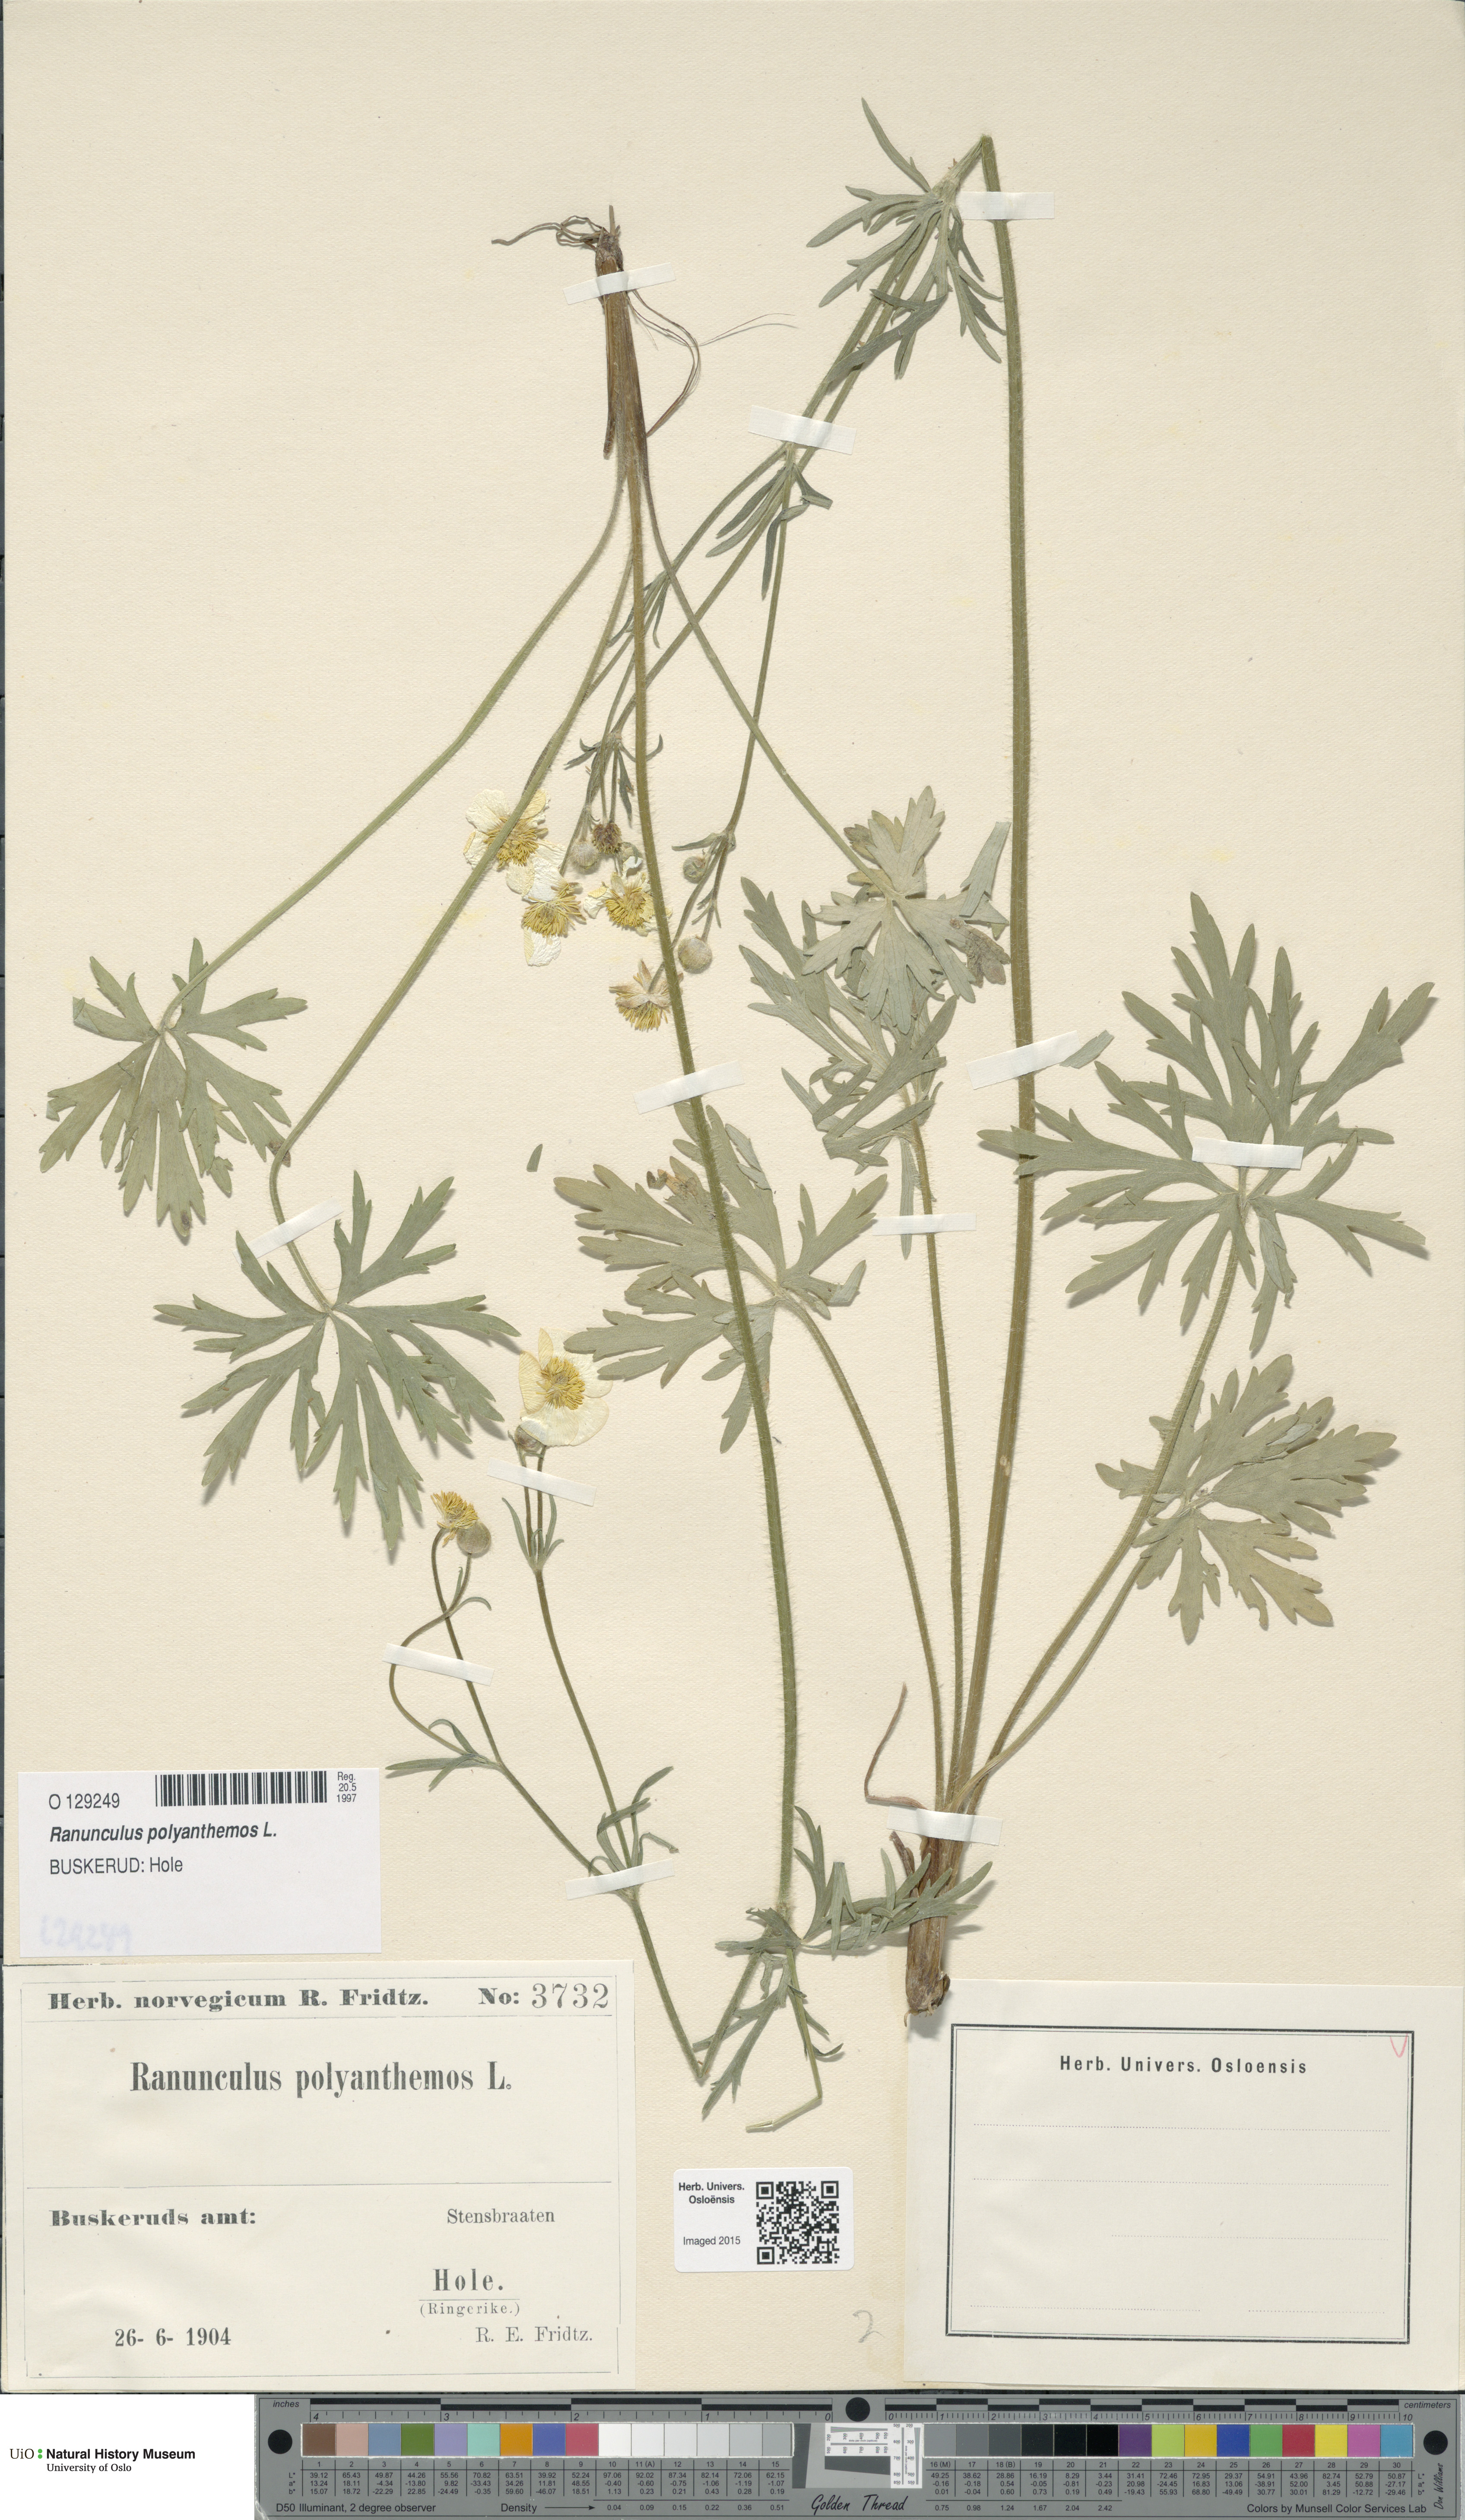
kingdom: Plantae
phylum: Tracheophyta
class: Magnoliopsida
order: Ranunculales
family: Ranunculaceae
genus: Ranunculus
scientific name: Ranunculus polyanthemos
